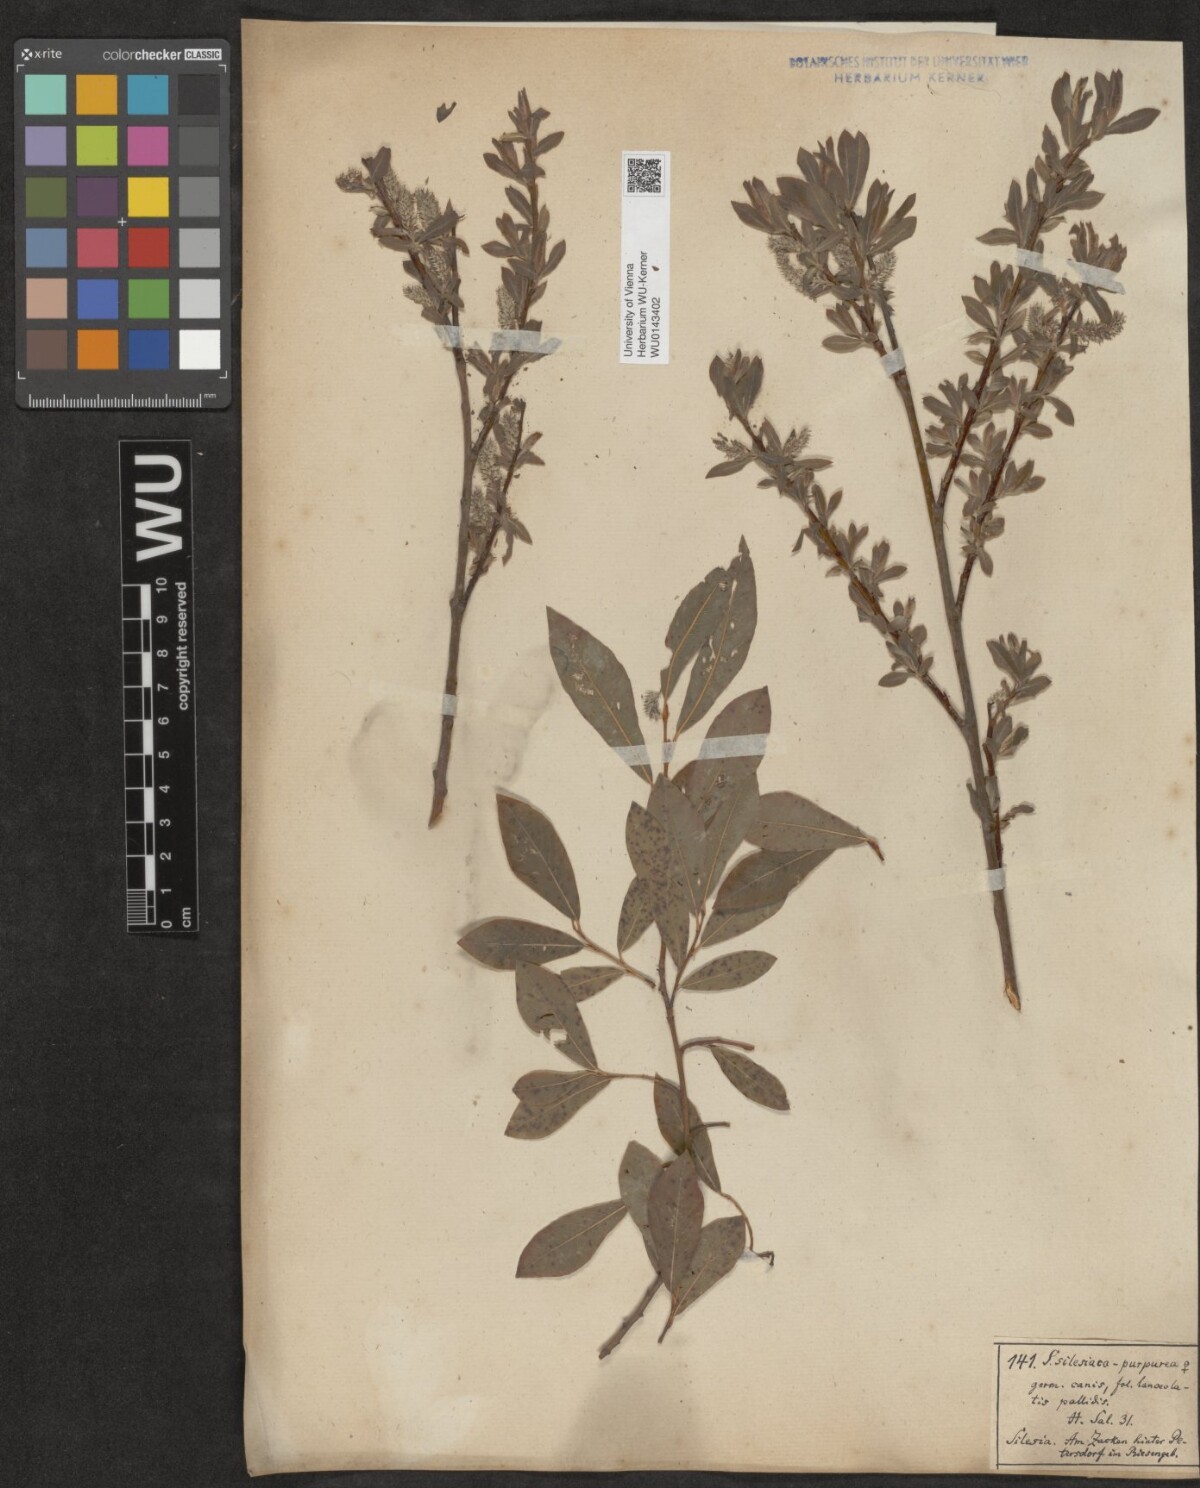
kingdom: Plantae
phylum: Tracheophyta
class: Magnoliopsida
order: Malpighiales
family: Salicaceae
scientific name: Salicaceae
